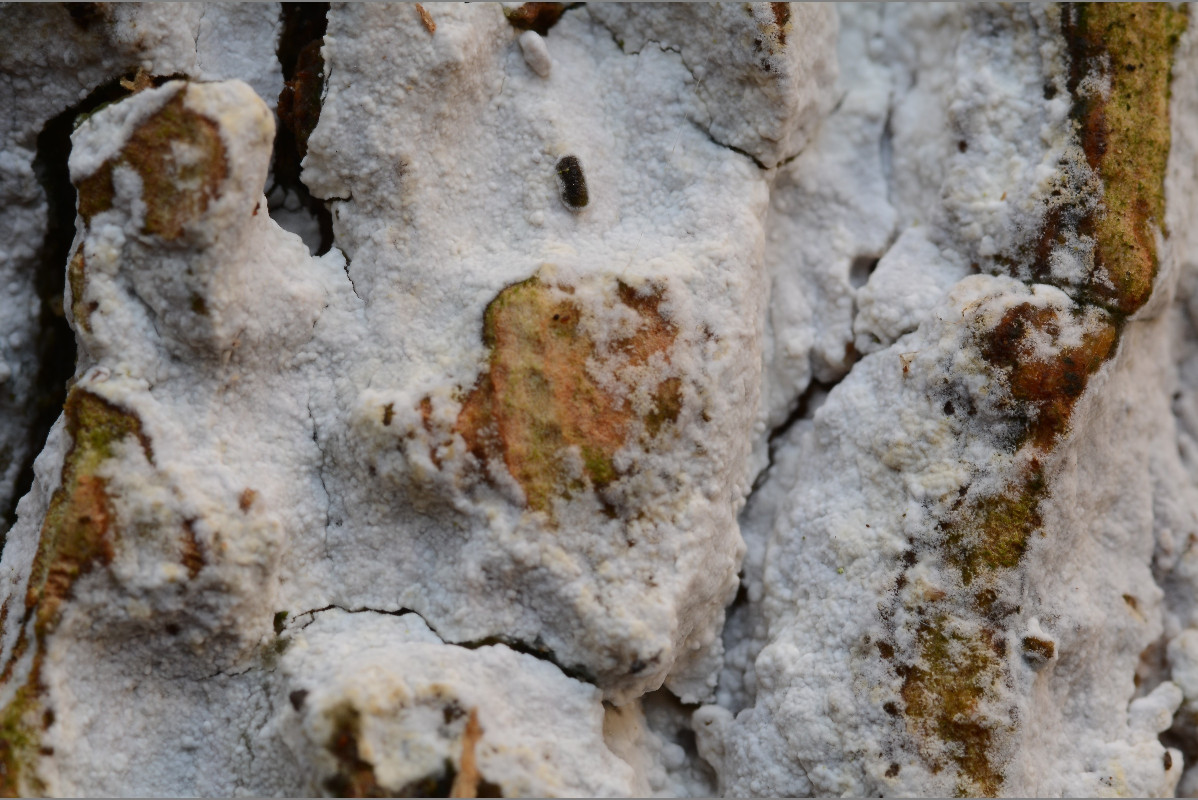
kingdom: Fungi
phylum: Basidiomycota
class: Agaricomycetes
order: Corticiales
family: Corticiaceae
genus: Lyomyces
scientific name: Lyomyces sambuci
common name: almindelig hyldehinde
